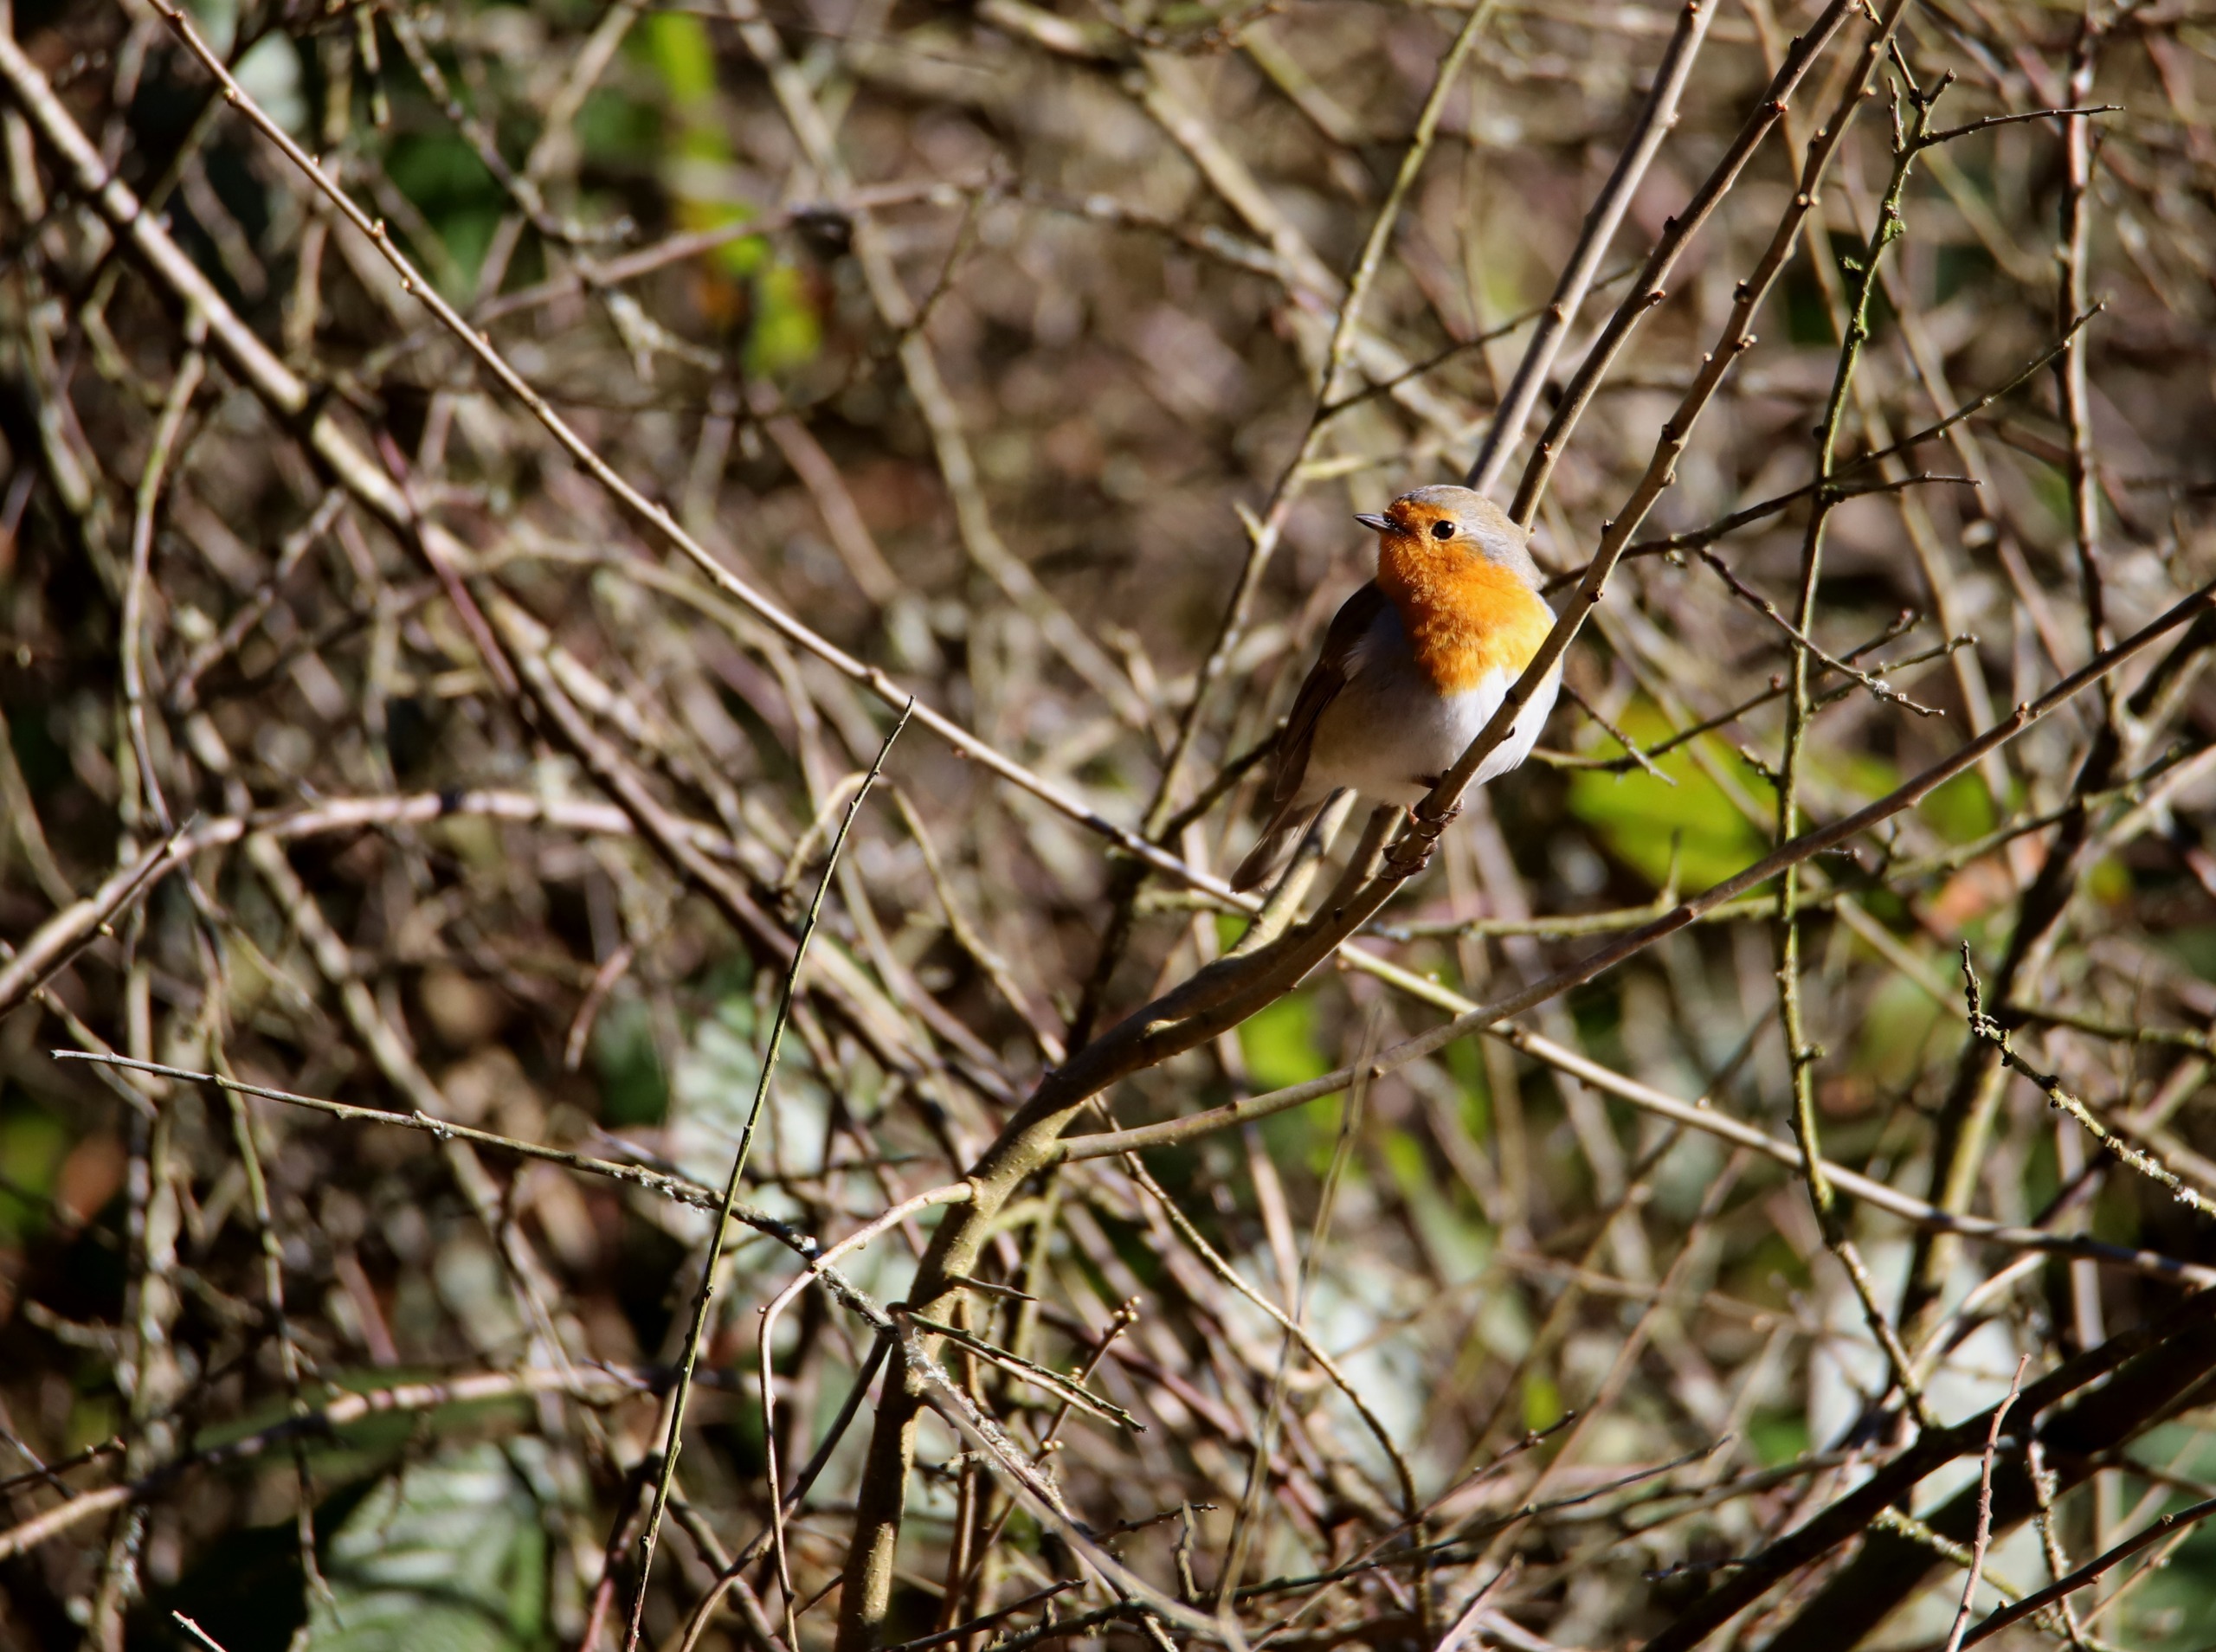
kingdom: Animalia
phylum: Chordata
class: Aves
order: Passeriformes
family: Muscicapidae
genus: Erithacus
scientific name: Erithacus rubecula
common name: Rødhals/rødkælk
